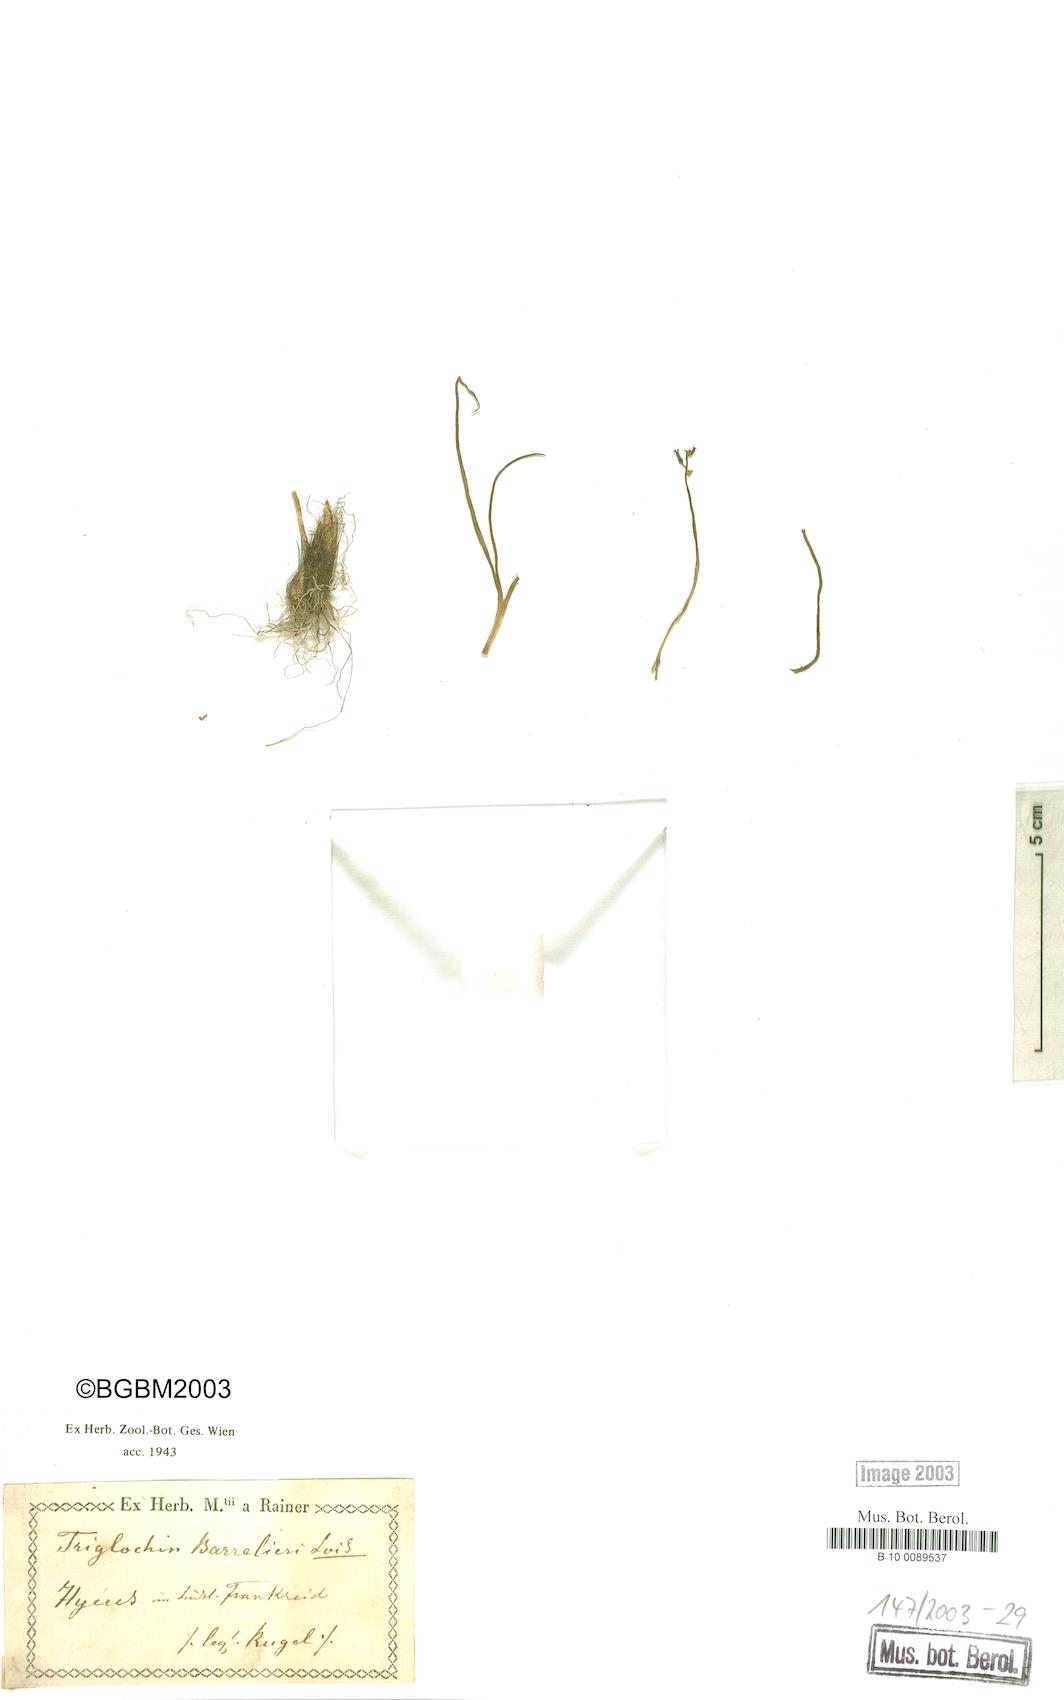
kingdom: Plantae
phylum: Tracheophyta
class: Liliopsida
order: Alismatales
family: Juncaginaceae
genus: Triglochin
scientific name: Triglochin bulbosa
